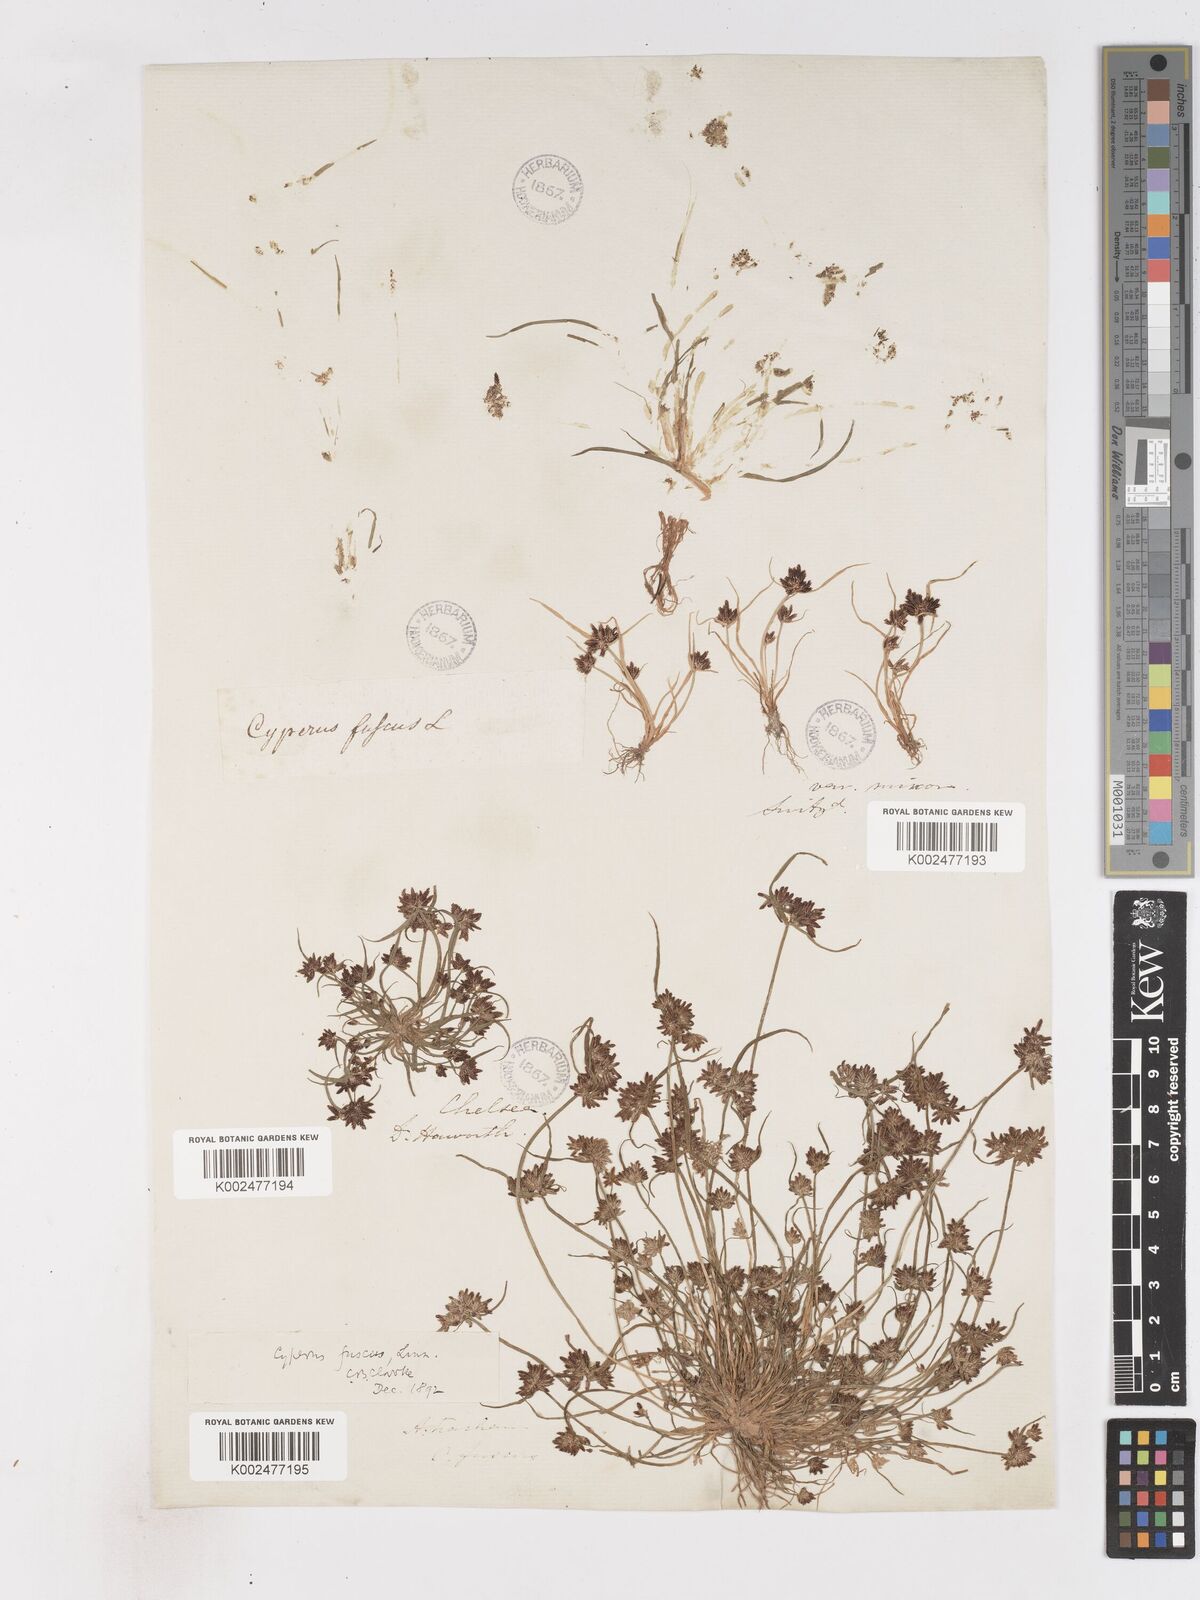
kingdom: Plantae
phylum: Tracheophyta
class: Liliopsida
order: Poales
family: Cyperaceae
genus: Cyperus
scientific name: Cyperus fuscus
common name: Brown galingale
